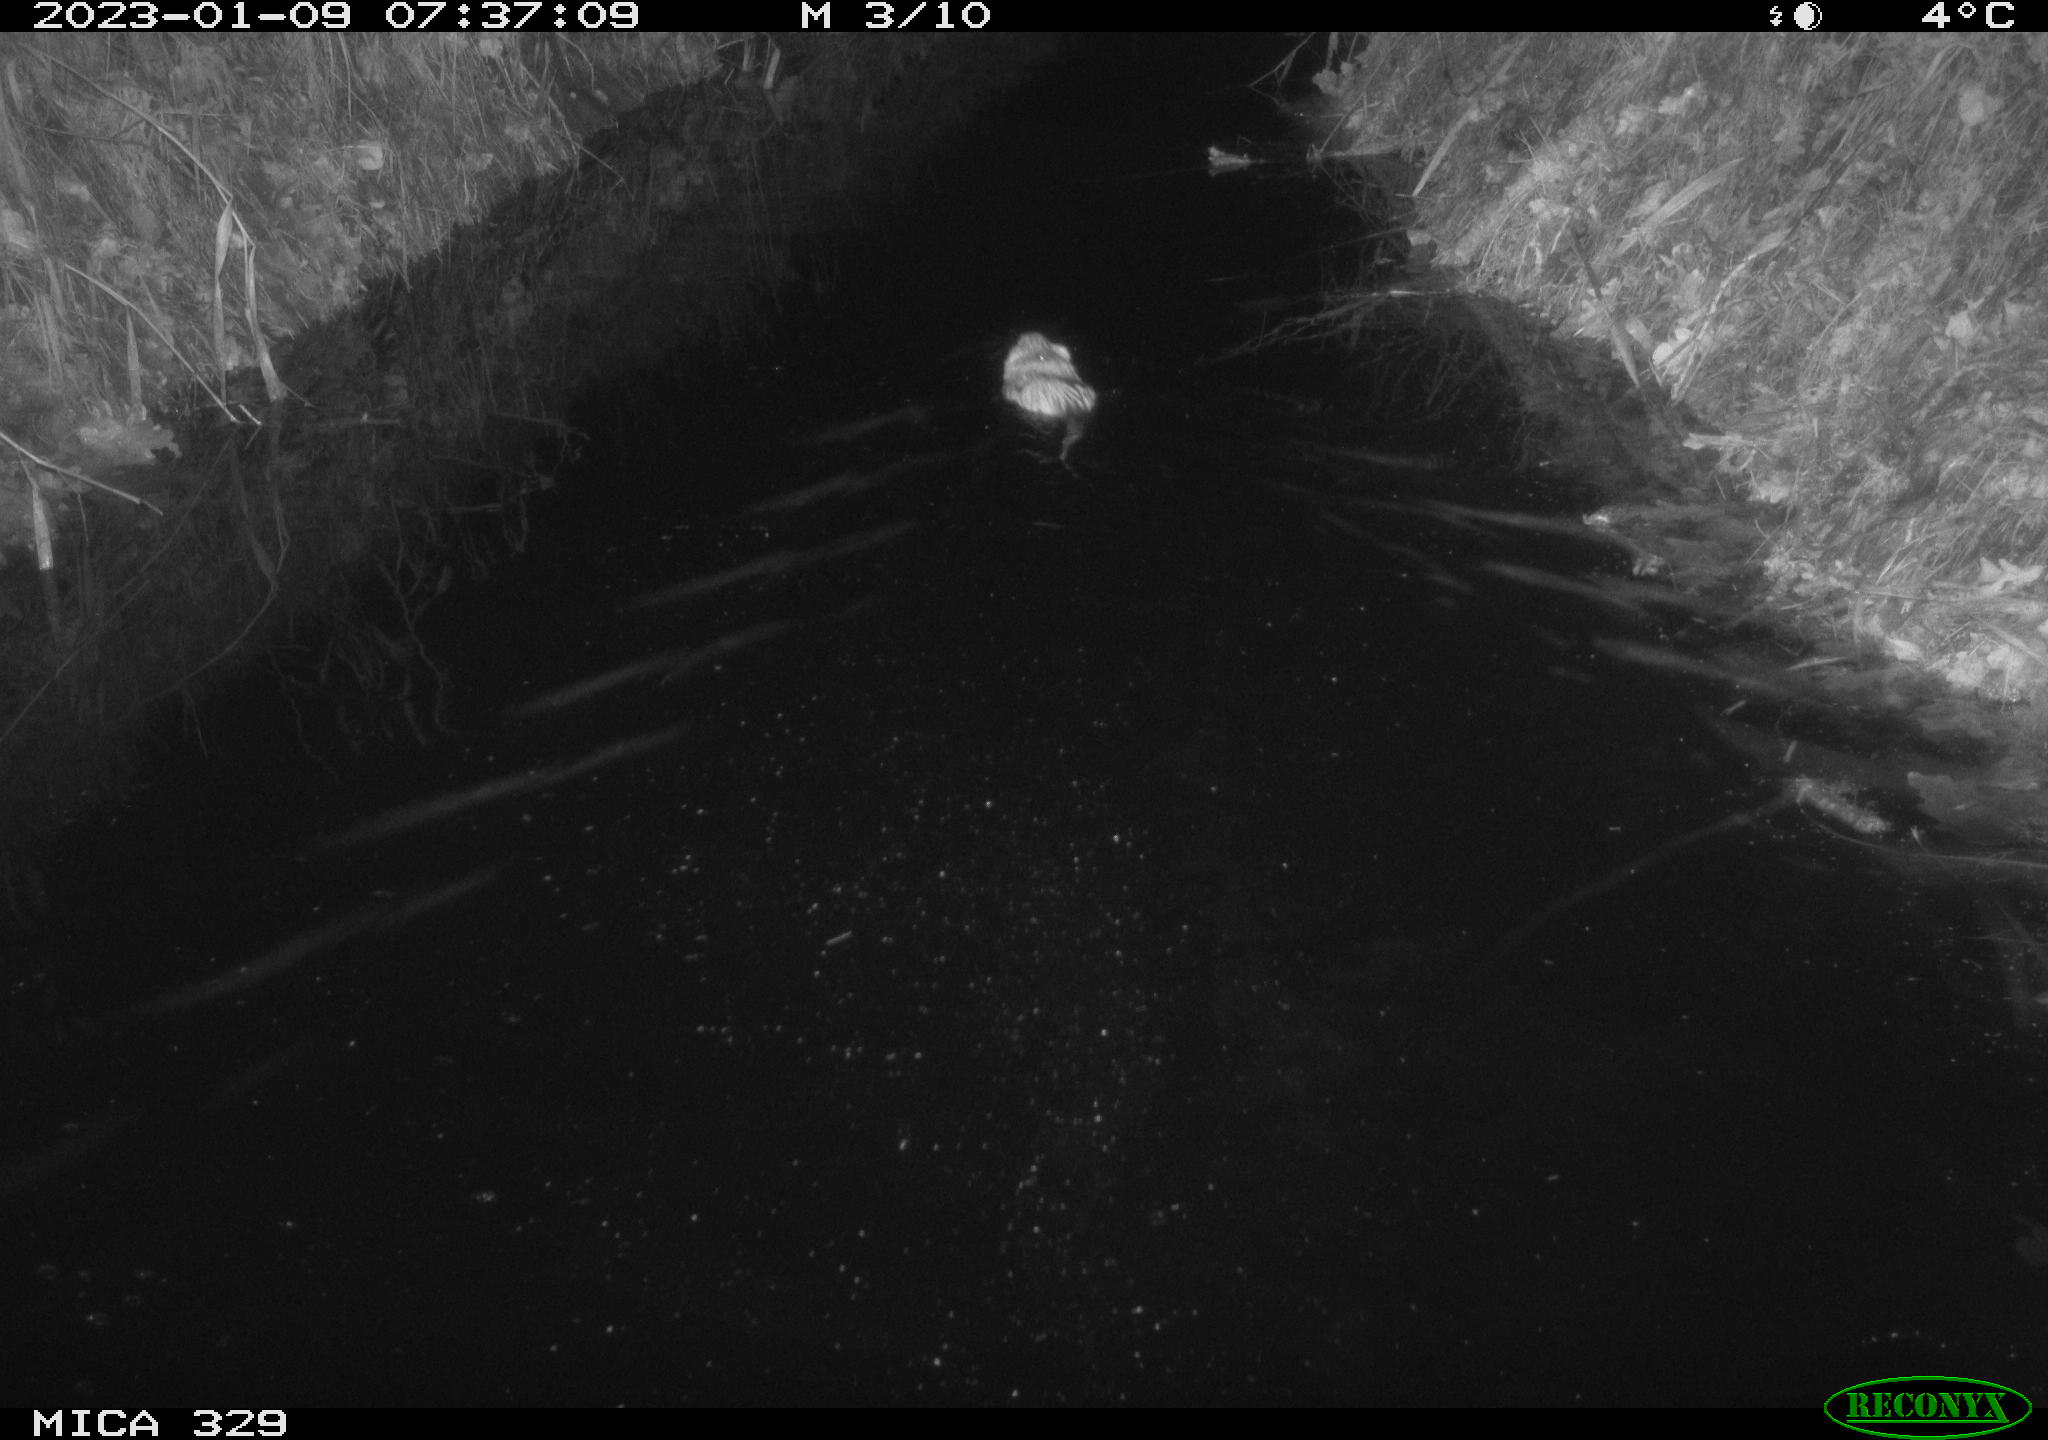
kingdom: Animalia
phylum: Chordata
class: Mammalia
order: Rodentia
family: Cricetidae
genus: Ondatra
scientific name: Ondatra zibethicus
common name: Muskrat
